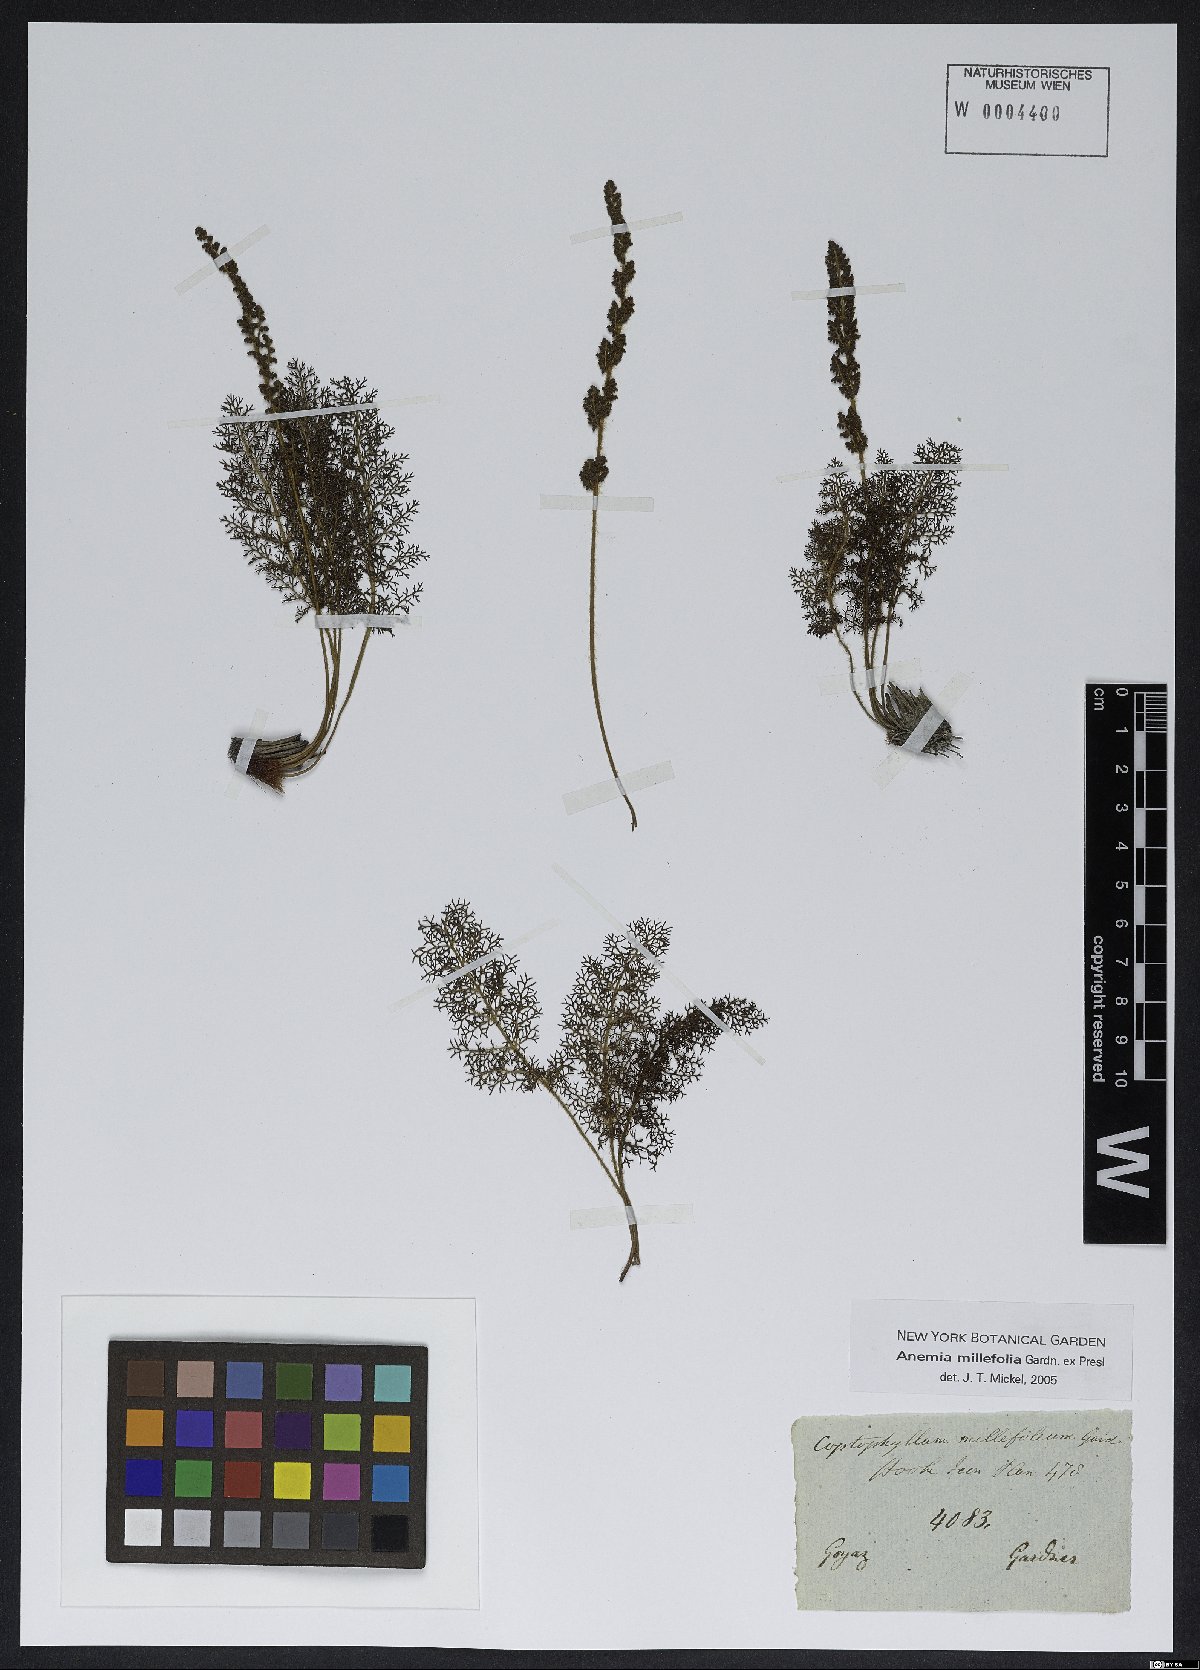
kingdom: Plantae
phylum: Tracheophyta
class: Polypodiopsida
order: Schizaeales
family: Anemiaceae
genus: Anemia
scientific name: Anemia millefolia
